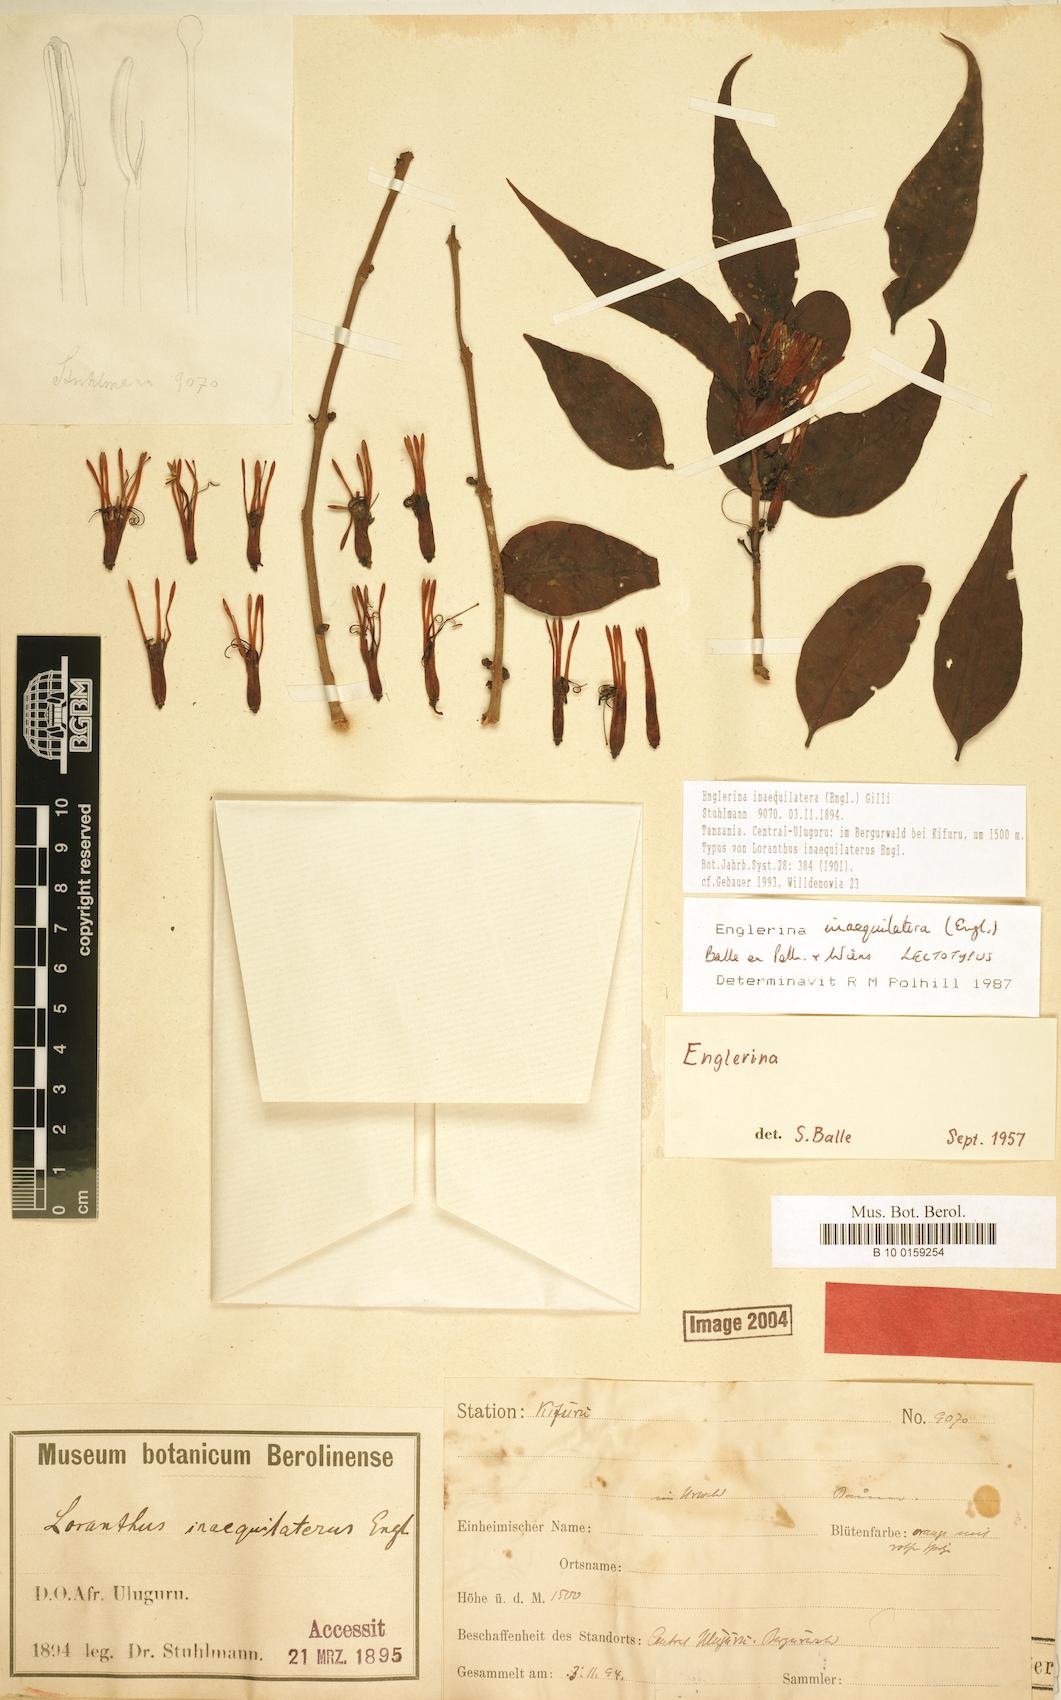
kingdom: Plantae
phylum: Tracheophyta
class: Magnoliopsida
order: Santalales
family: Loranthaceae
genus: Englerina
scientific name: Englerina inaequilatera
